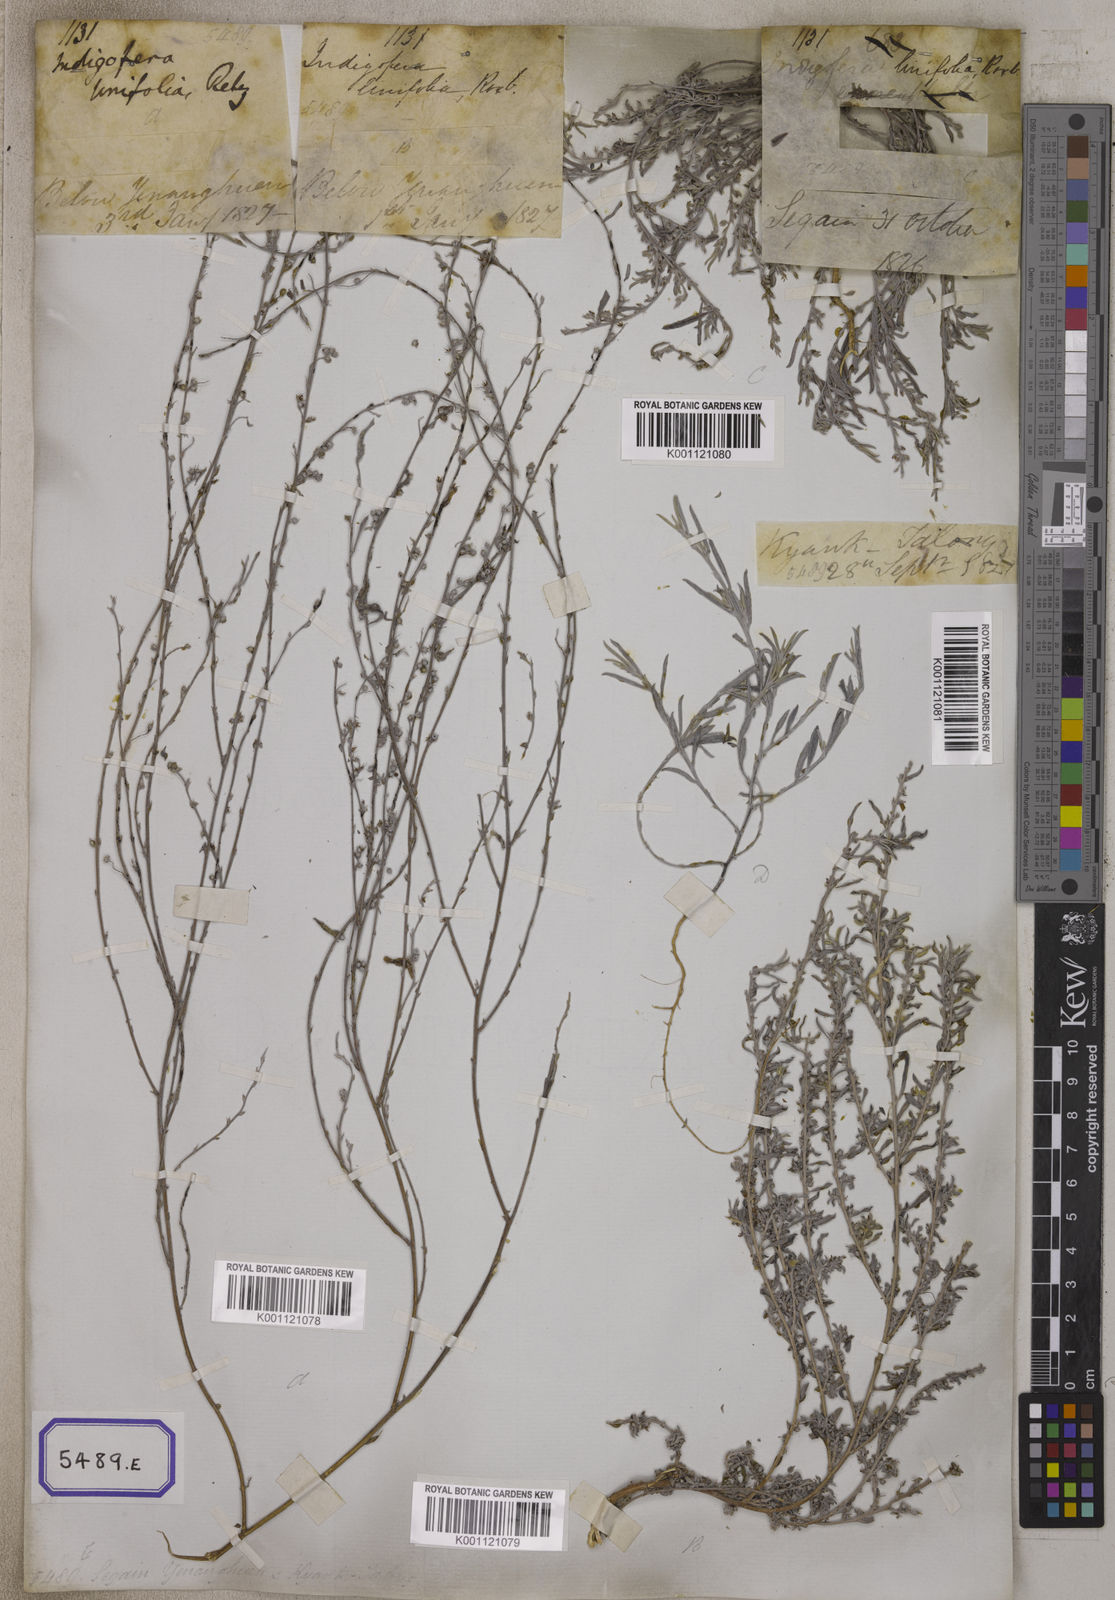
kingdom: Plantae
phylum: Tracheophyta
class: Magnoliopsida
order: Fabales
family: Fabaceae
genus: Indigofera
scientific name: Indigofera linifolia
